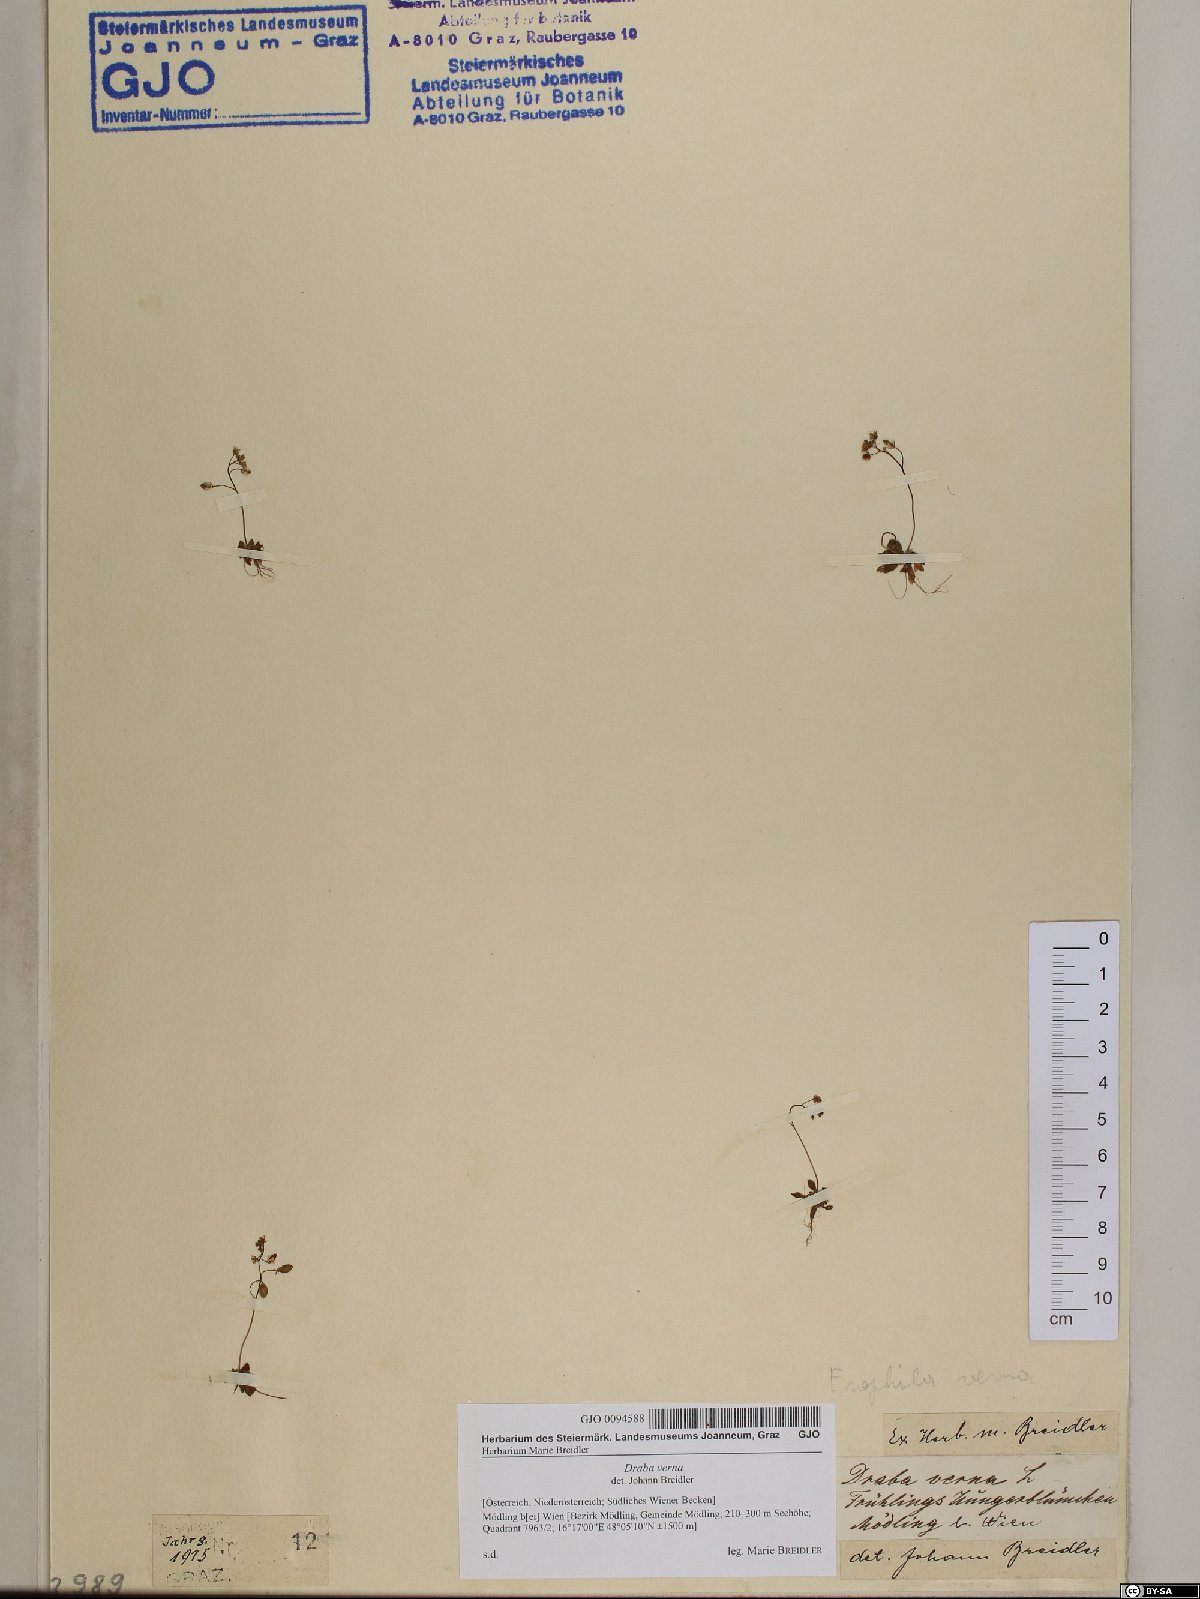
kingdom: Plantae
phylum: Tracheophyta
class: Magnoliopsida
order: Brassicales
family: Brassicaceae
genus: Draba
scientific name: Draba verna
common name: Spring draba
